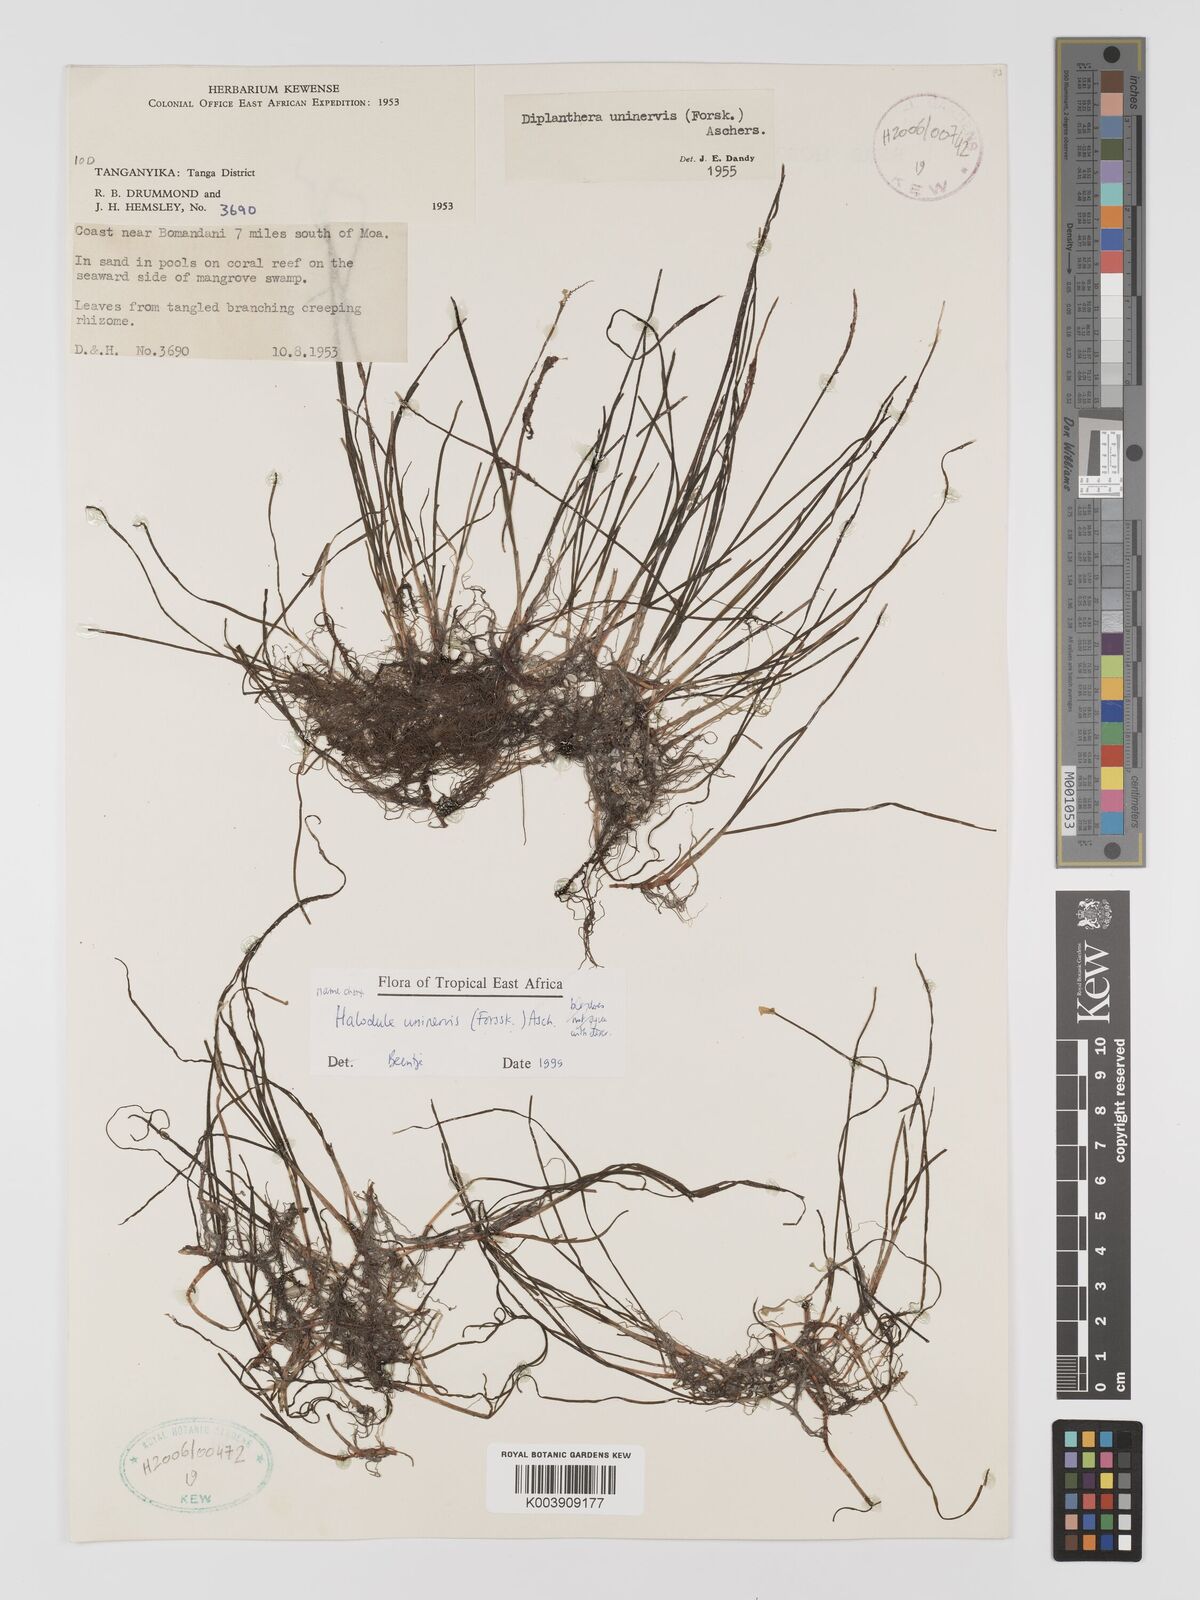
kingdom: Plantae
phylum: Tracheophyta
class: Liliopsida
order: Alismatales
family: Cymodoceaceae
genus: Halodule
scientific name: Halodule uninervis
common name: Narrowleaf seagrass
